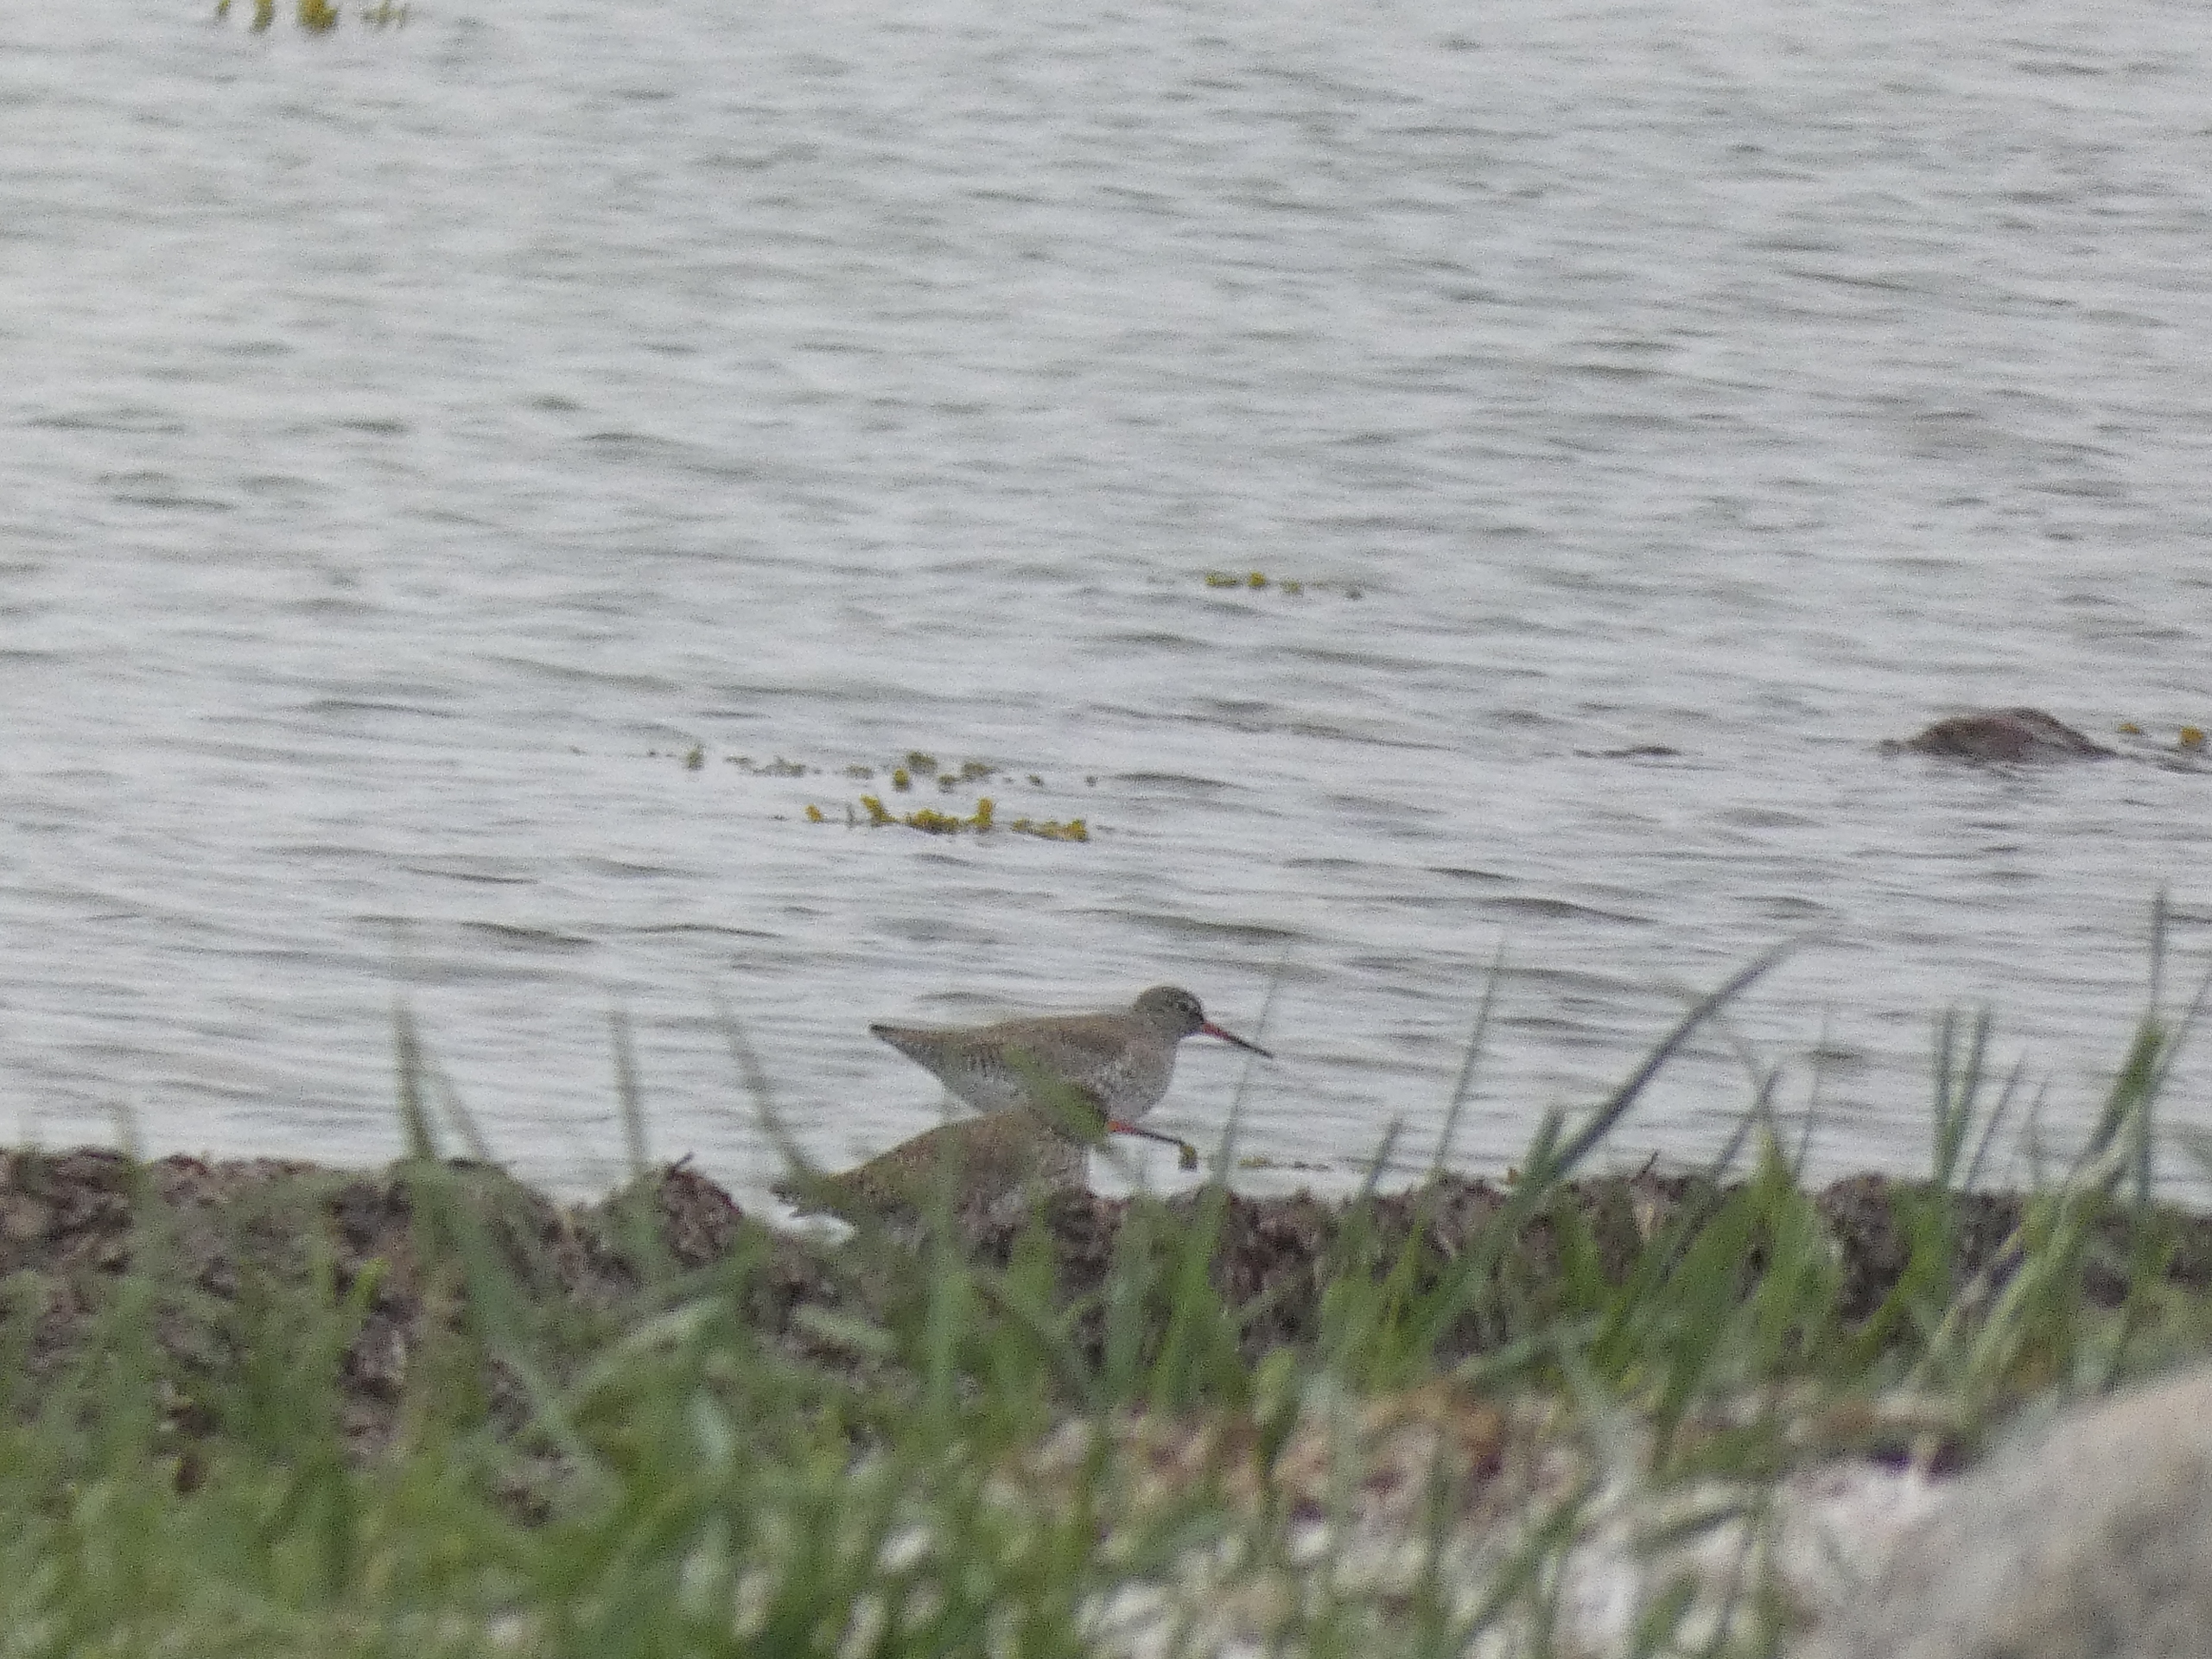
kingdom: Animalia
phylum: Chordata
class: Aves
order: Charadriiformes
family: Scolopacidae
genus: Tringa
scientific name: Tringa totanus
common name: Rødben
